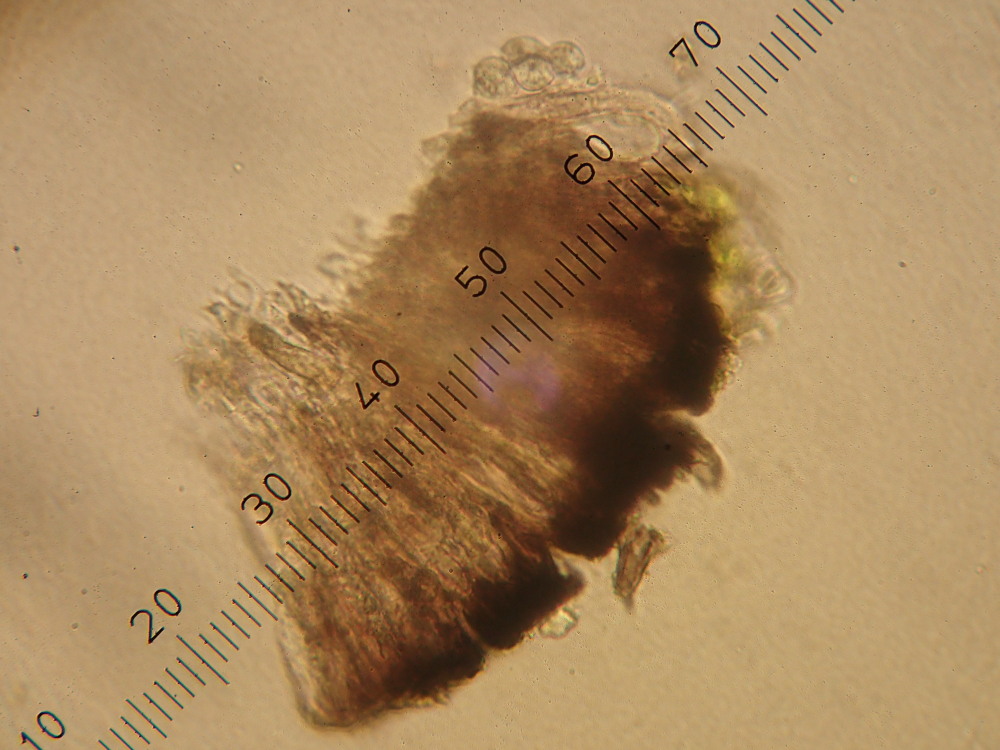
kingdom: Fungi
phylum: Ascomycota
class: Lecanoromycetes
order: Lecanorales
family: Tephromelataceae
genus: Tephromela
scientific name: Tephromela atra
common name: sortfrugtet kantskivelav
